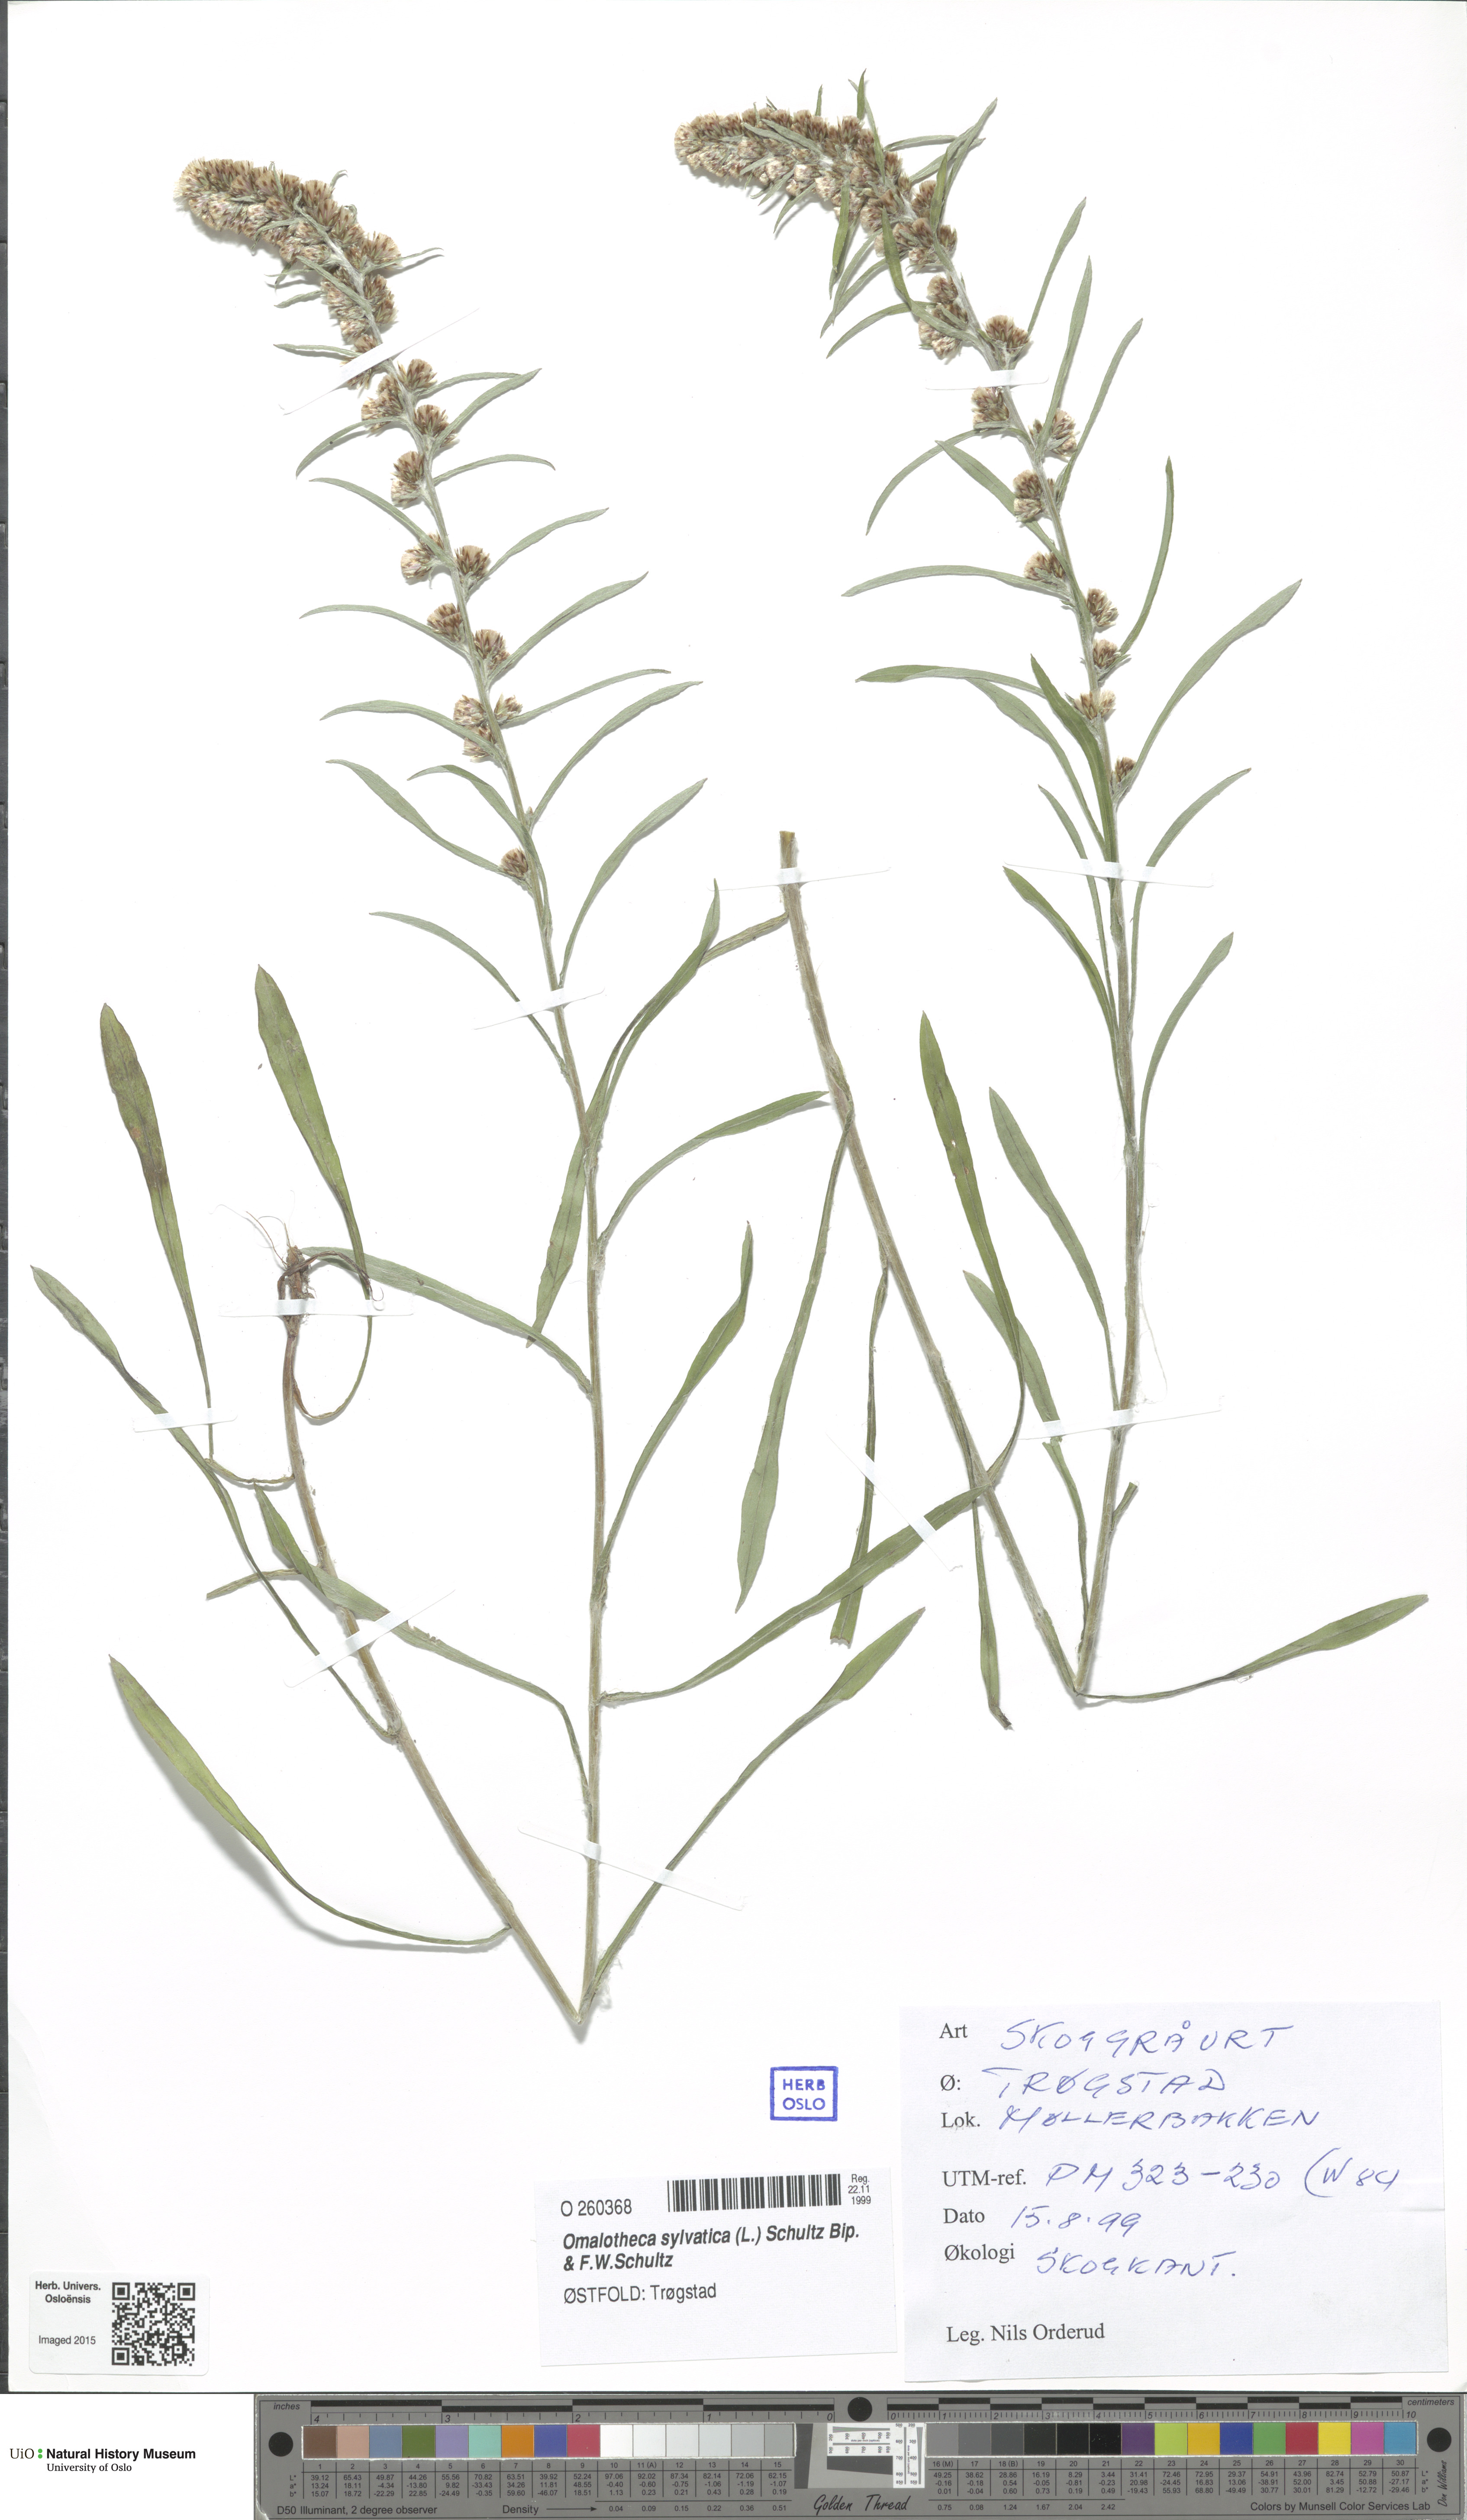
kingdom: Plantae
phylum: Tracheophyta
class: Magnoliopsida
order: Asterales
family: Asteraceae
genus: Omalotheca
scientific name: Omalotheca sylvatica
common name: Heath cudweed
